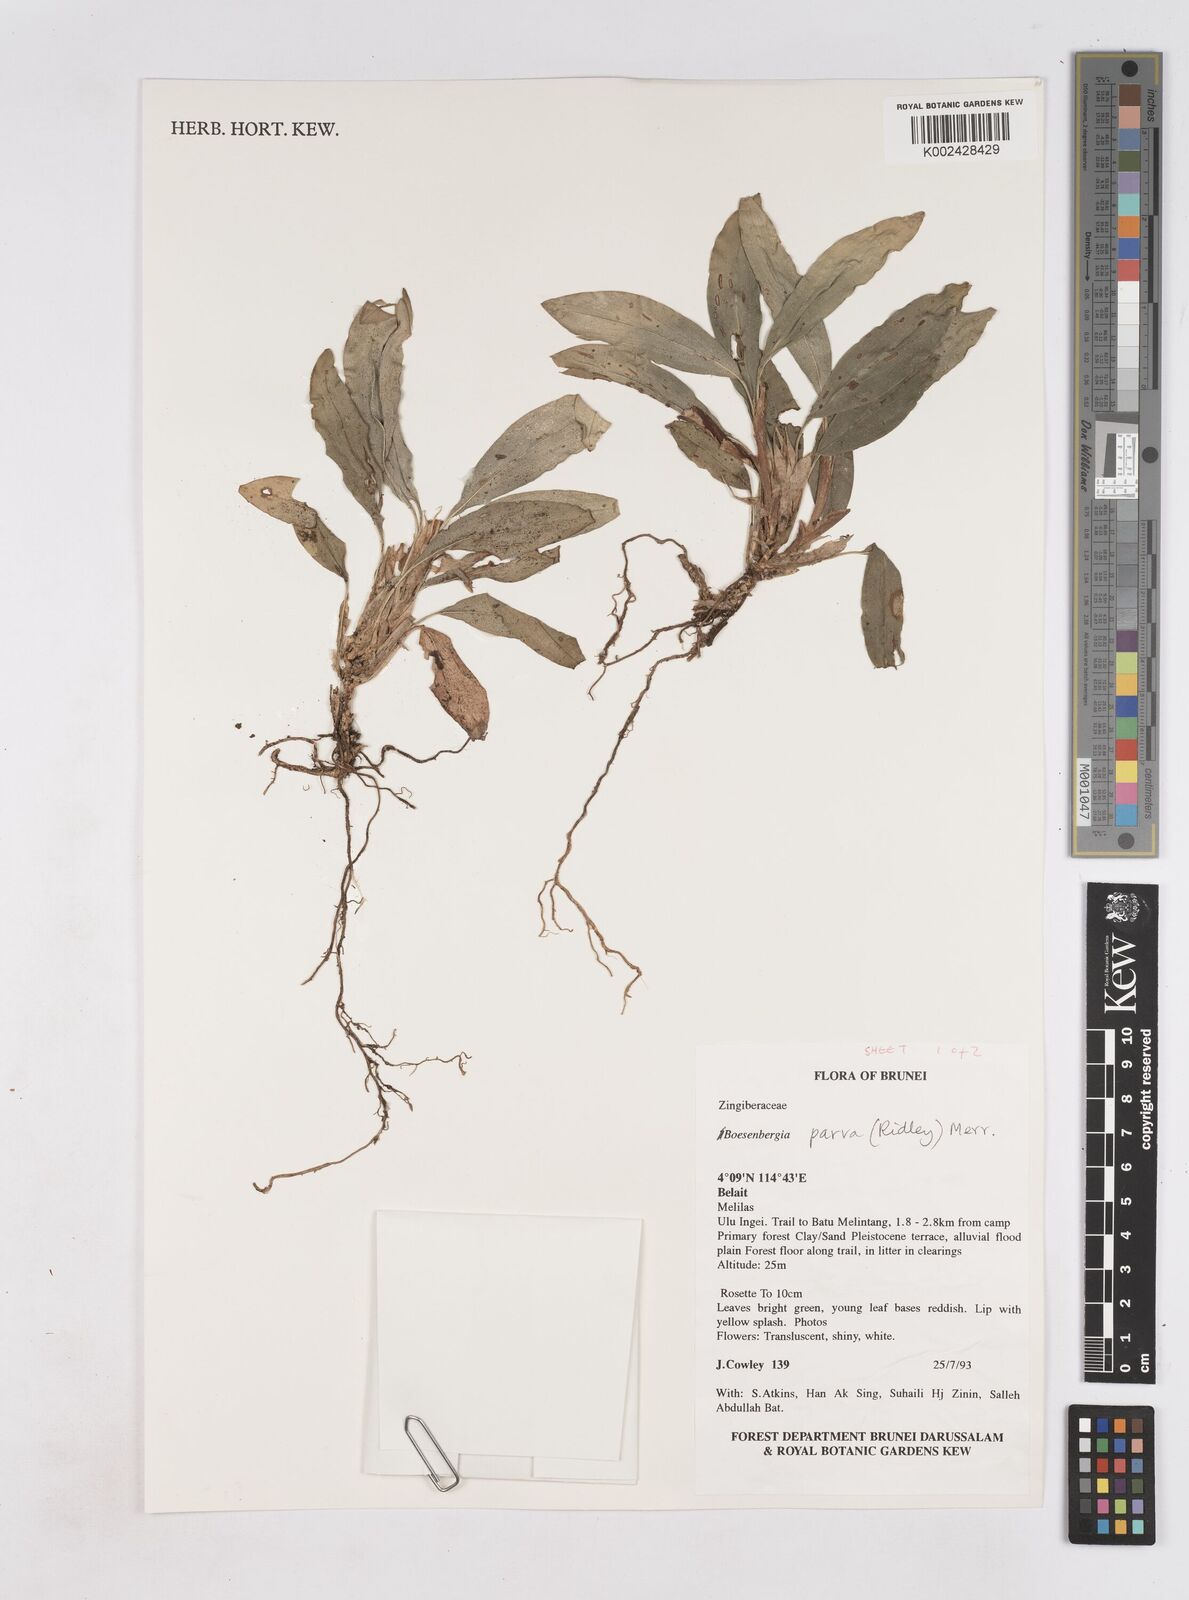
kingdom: Plantae
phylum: Tracheophyta
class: Liliopsida
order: Zingiberales
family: Zingiberaceae
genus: Boesenbergia
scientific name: Boesenbergia parva
